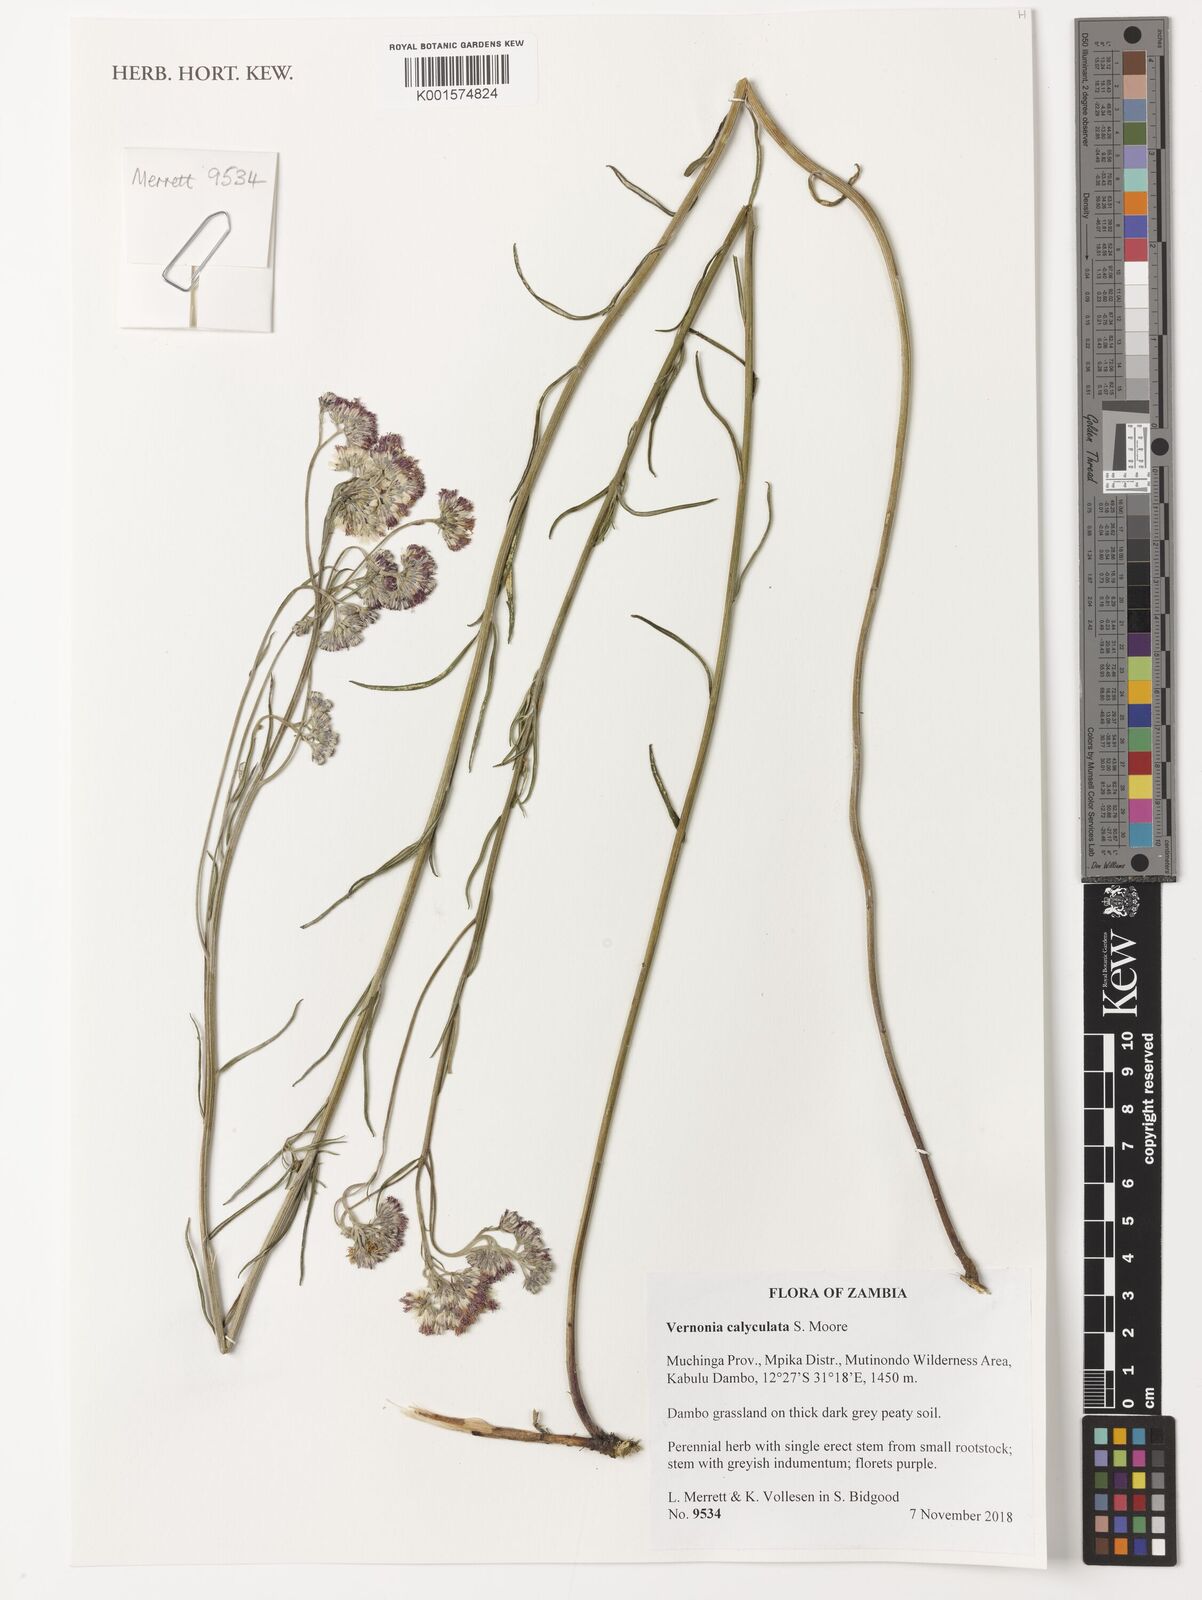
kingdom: Plantae
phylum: Tracheophyta
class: Magnoliopsida
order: Asterales
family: Asteraceae
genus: Hilliardiella
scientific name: Hilliardiella calyculata
